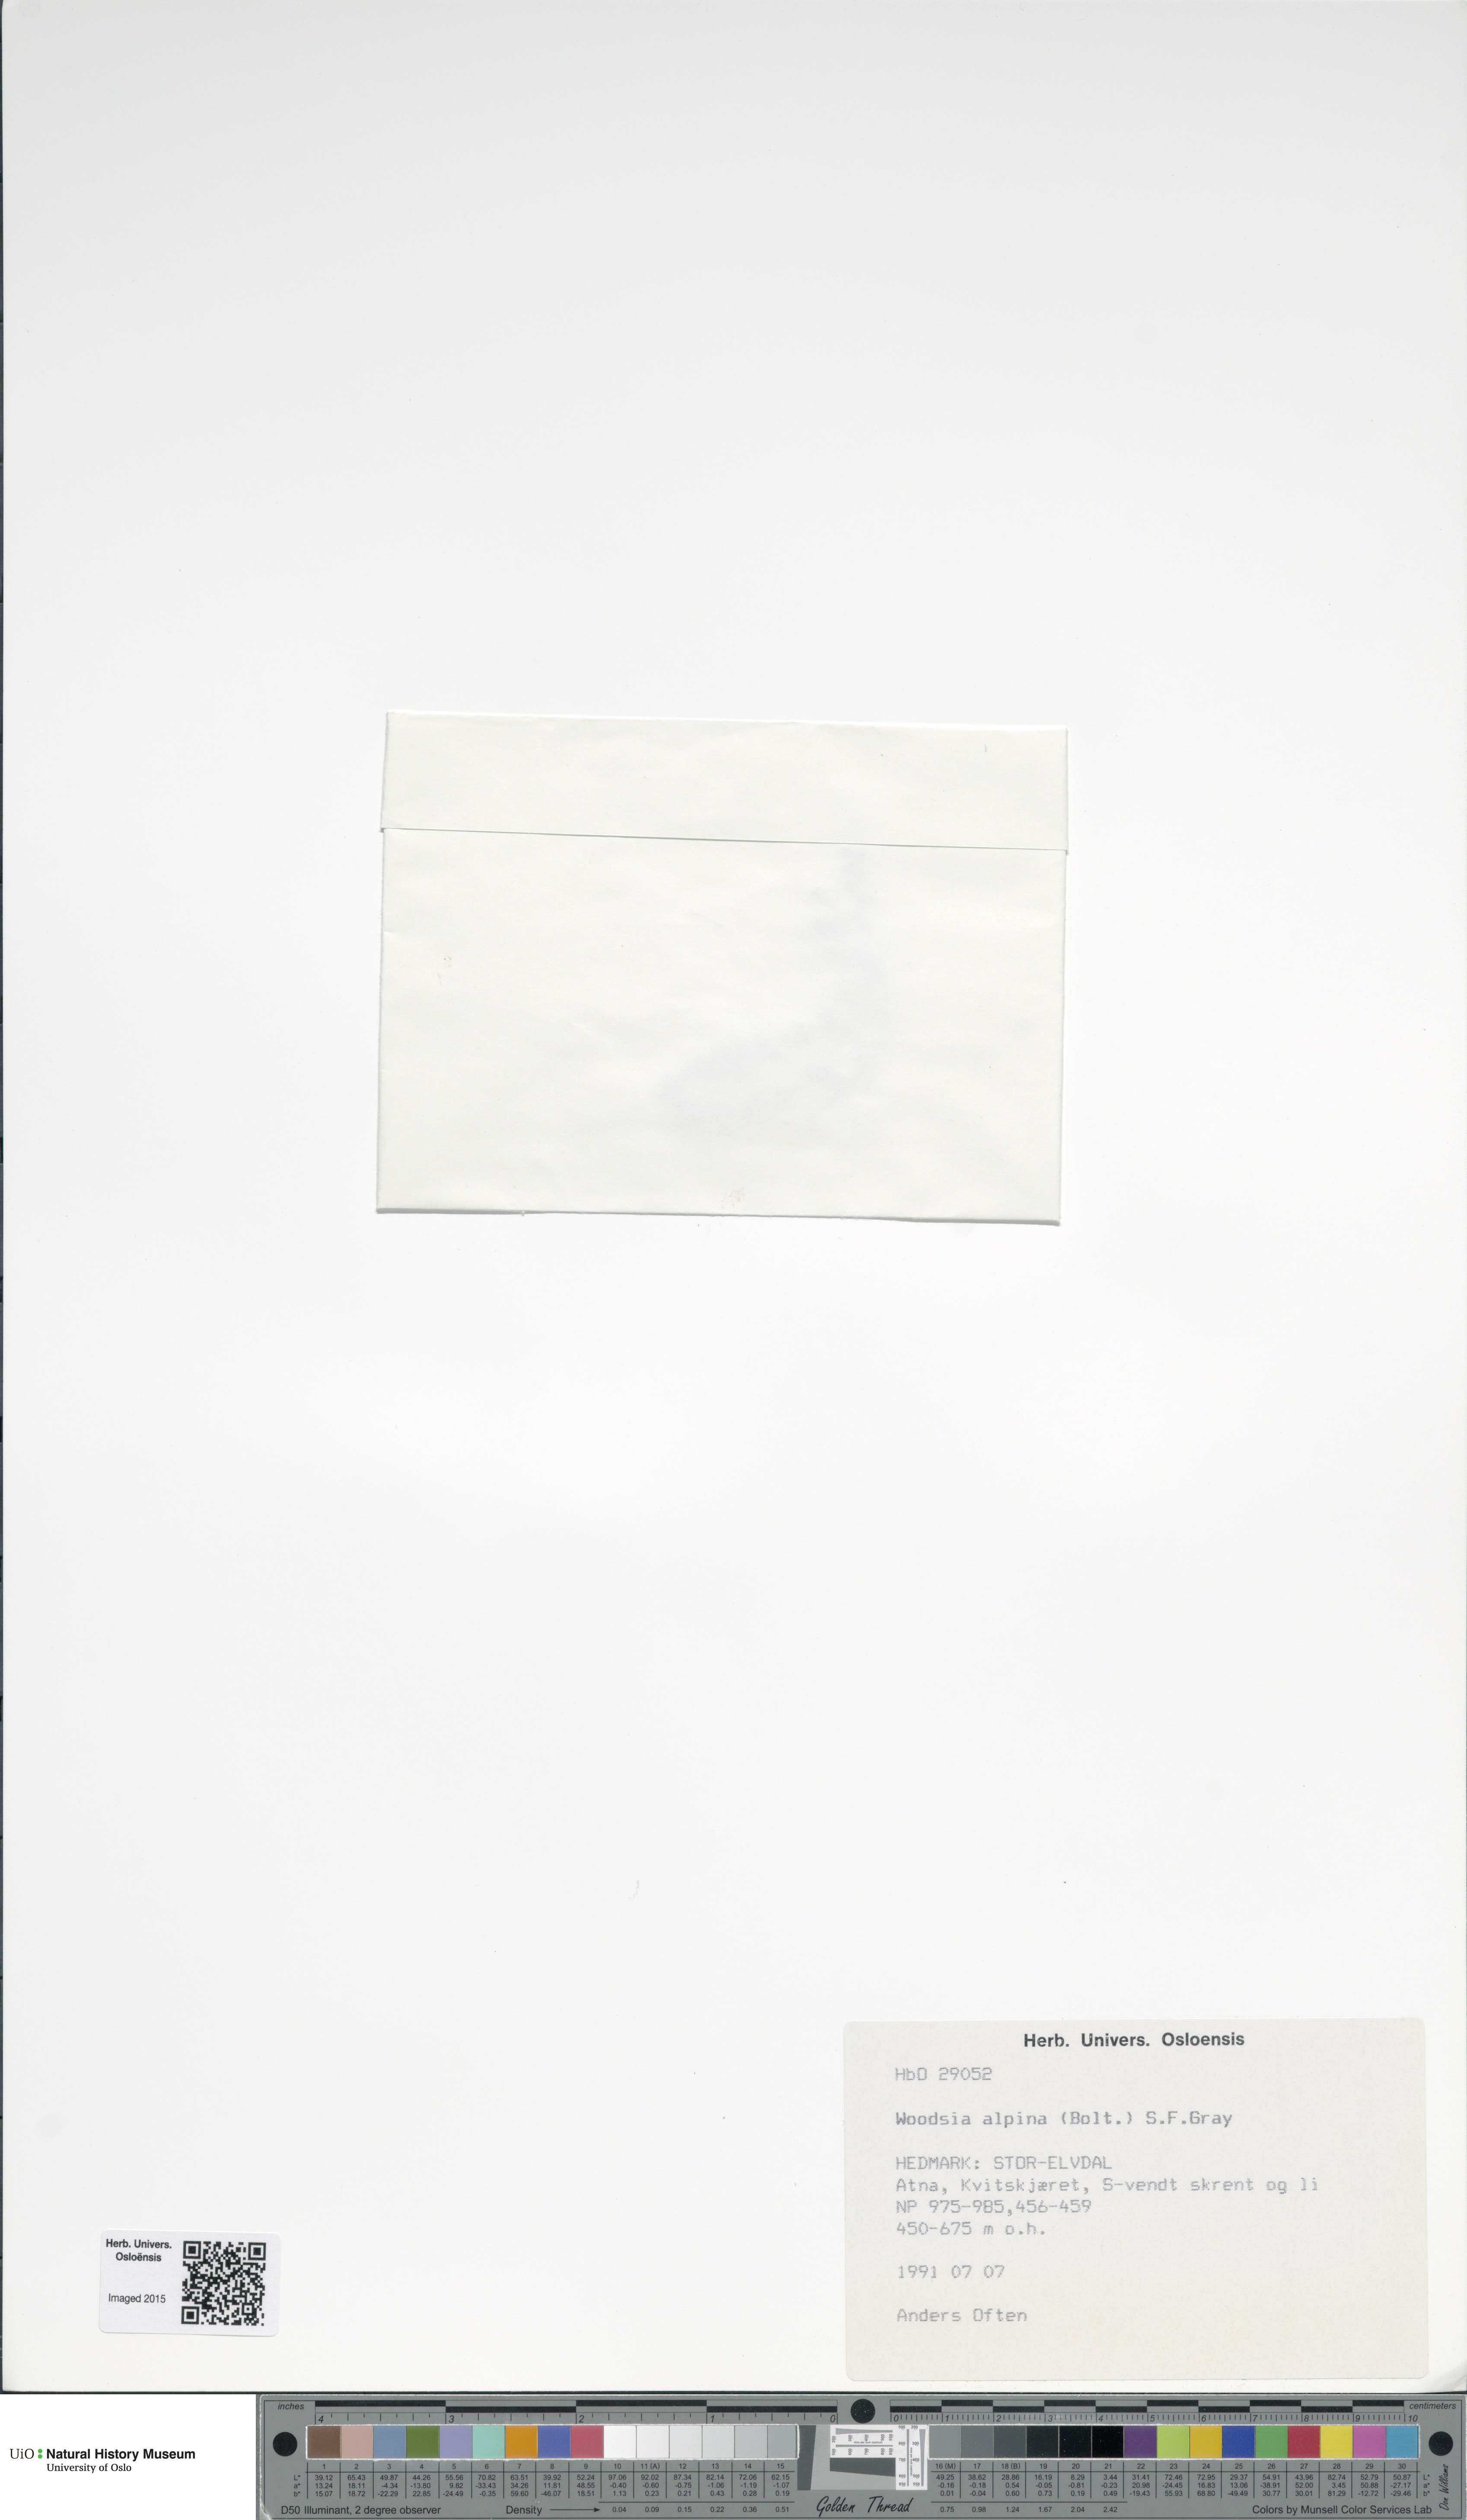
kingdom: Plantae
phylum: Tracheophyta
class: Polypodiopsida
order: Polypodiales
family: Woodsiaceae
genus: Woodsia
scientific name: Woodsia alpina
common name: Alpine woodsia
